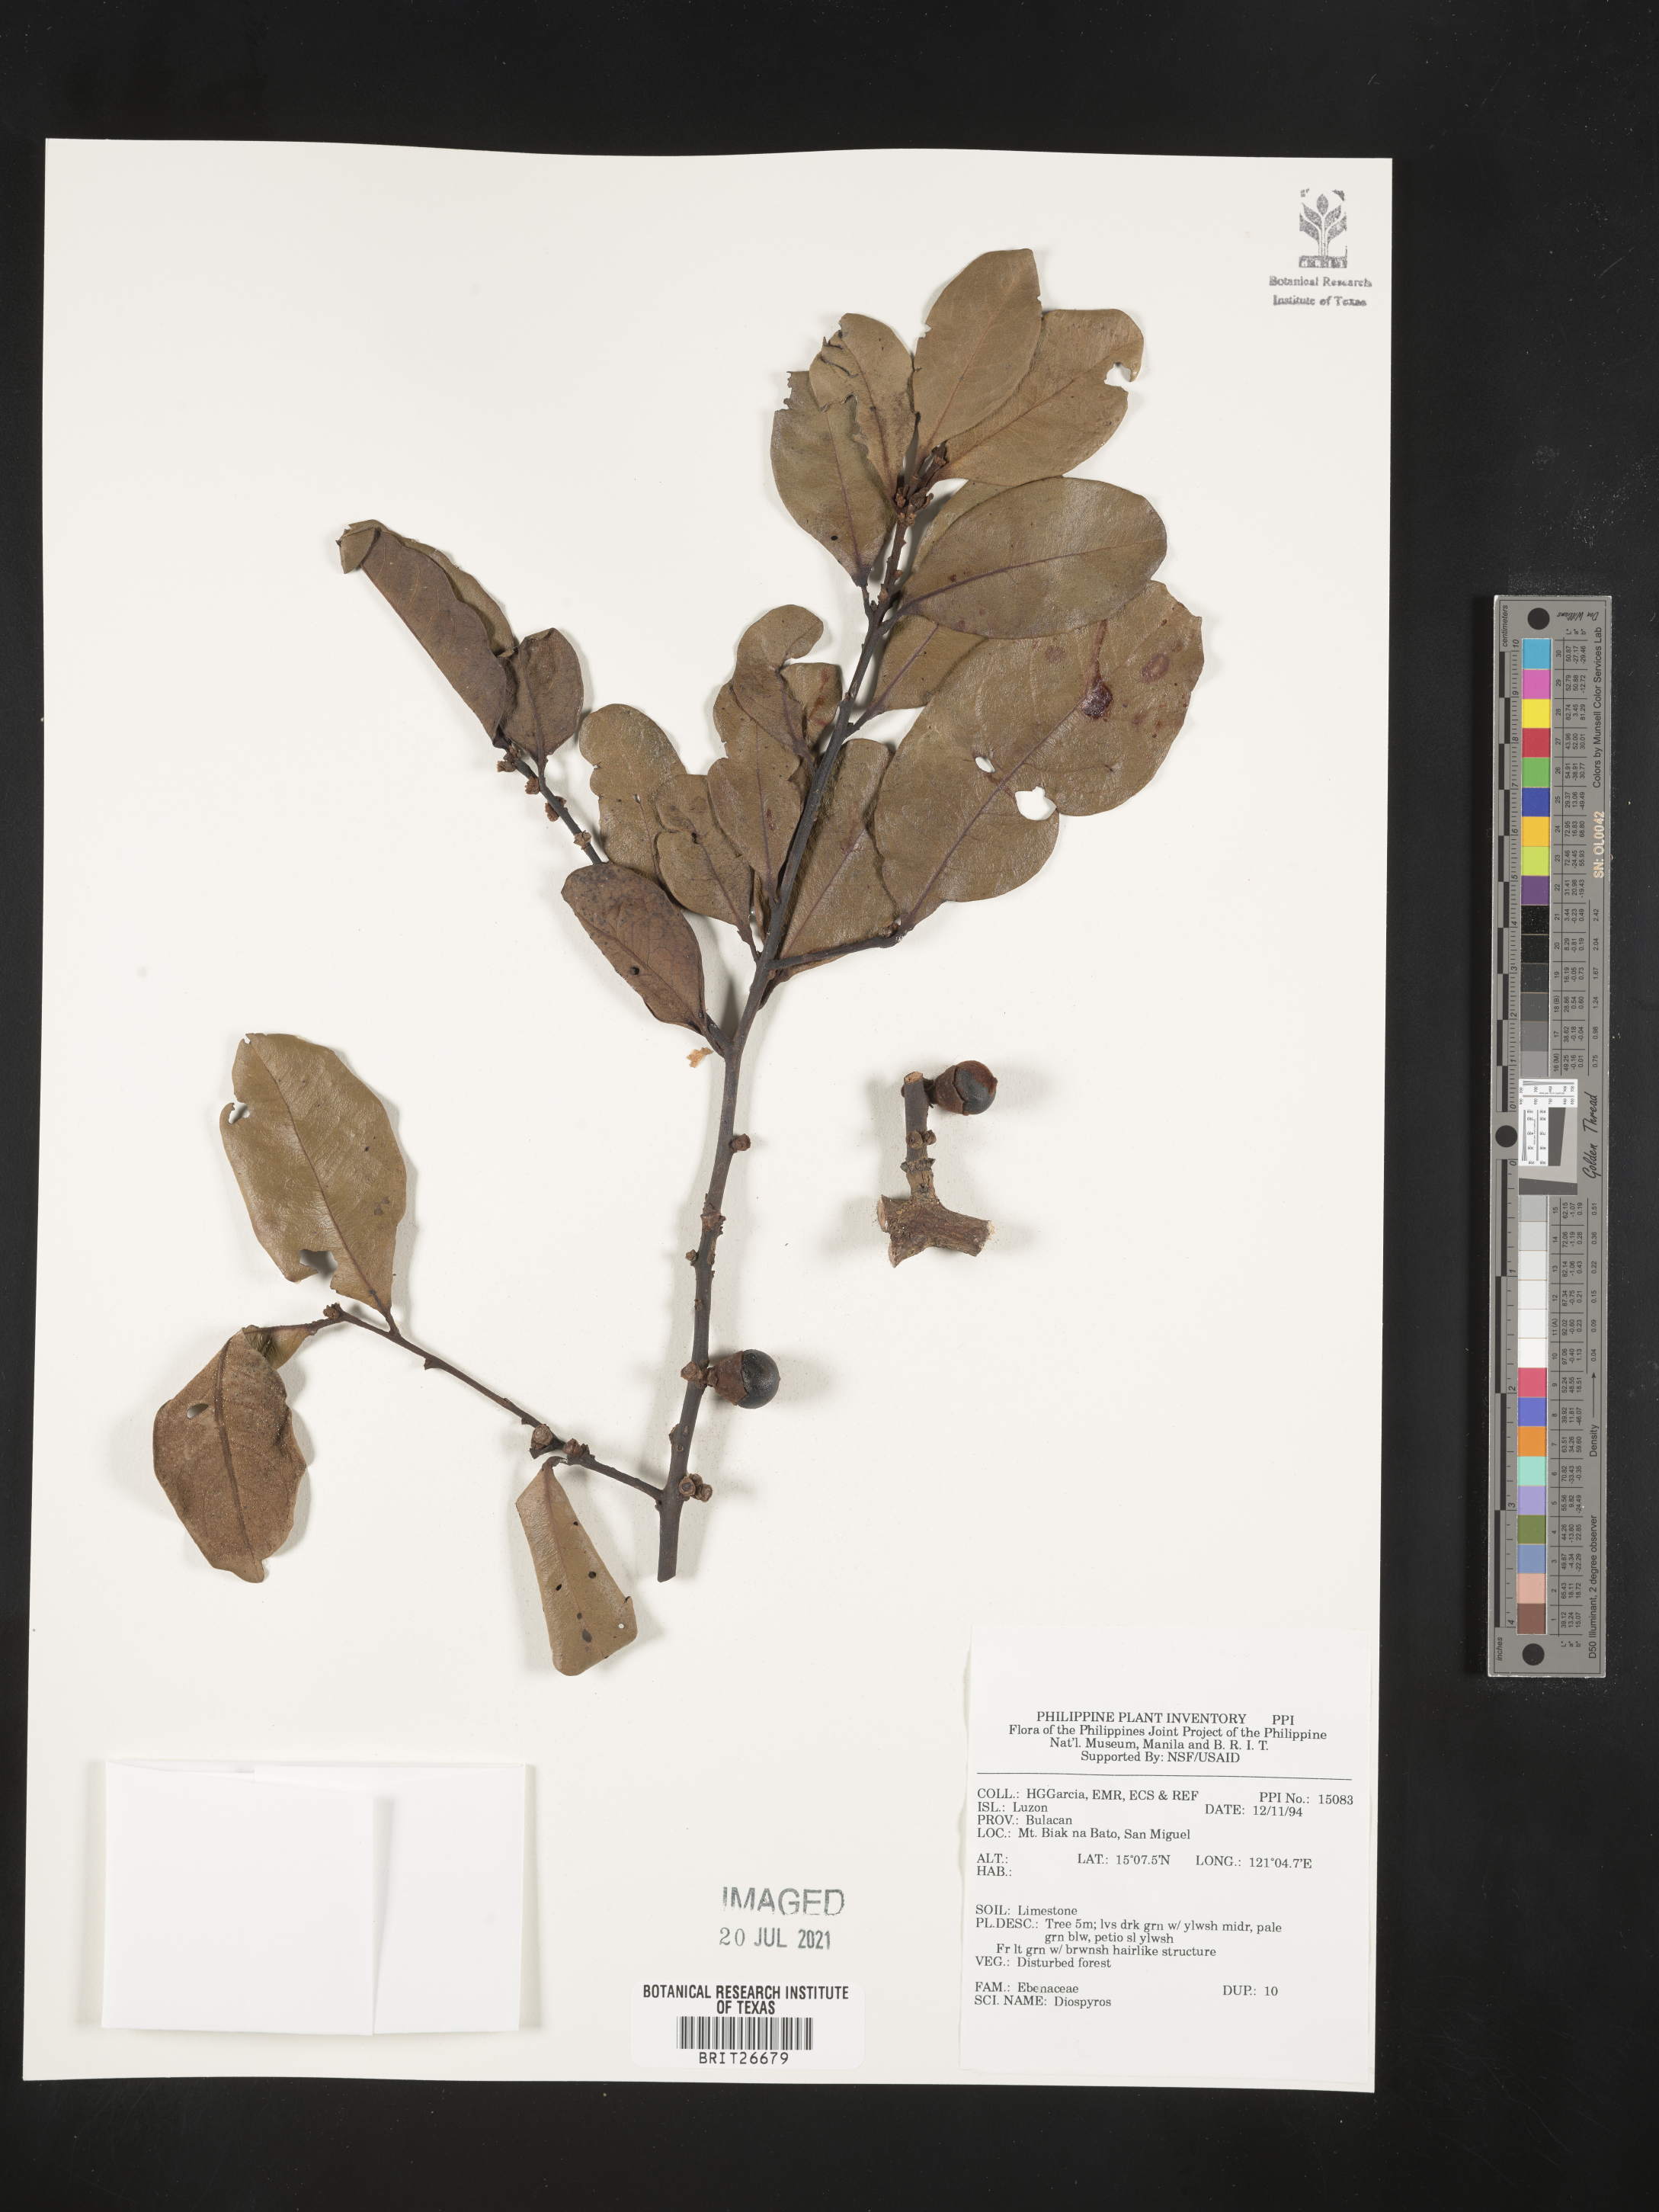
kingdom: Plantae
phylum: Tracheophyta
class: Magnoliopsida
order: Ericales
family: Ebenaceae
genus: Diospyros
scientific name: Diospyros
